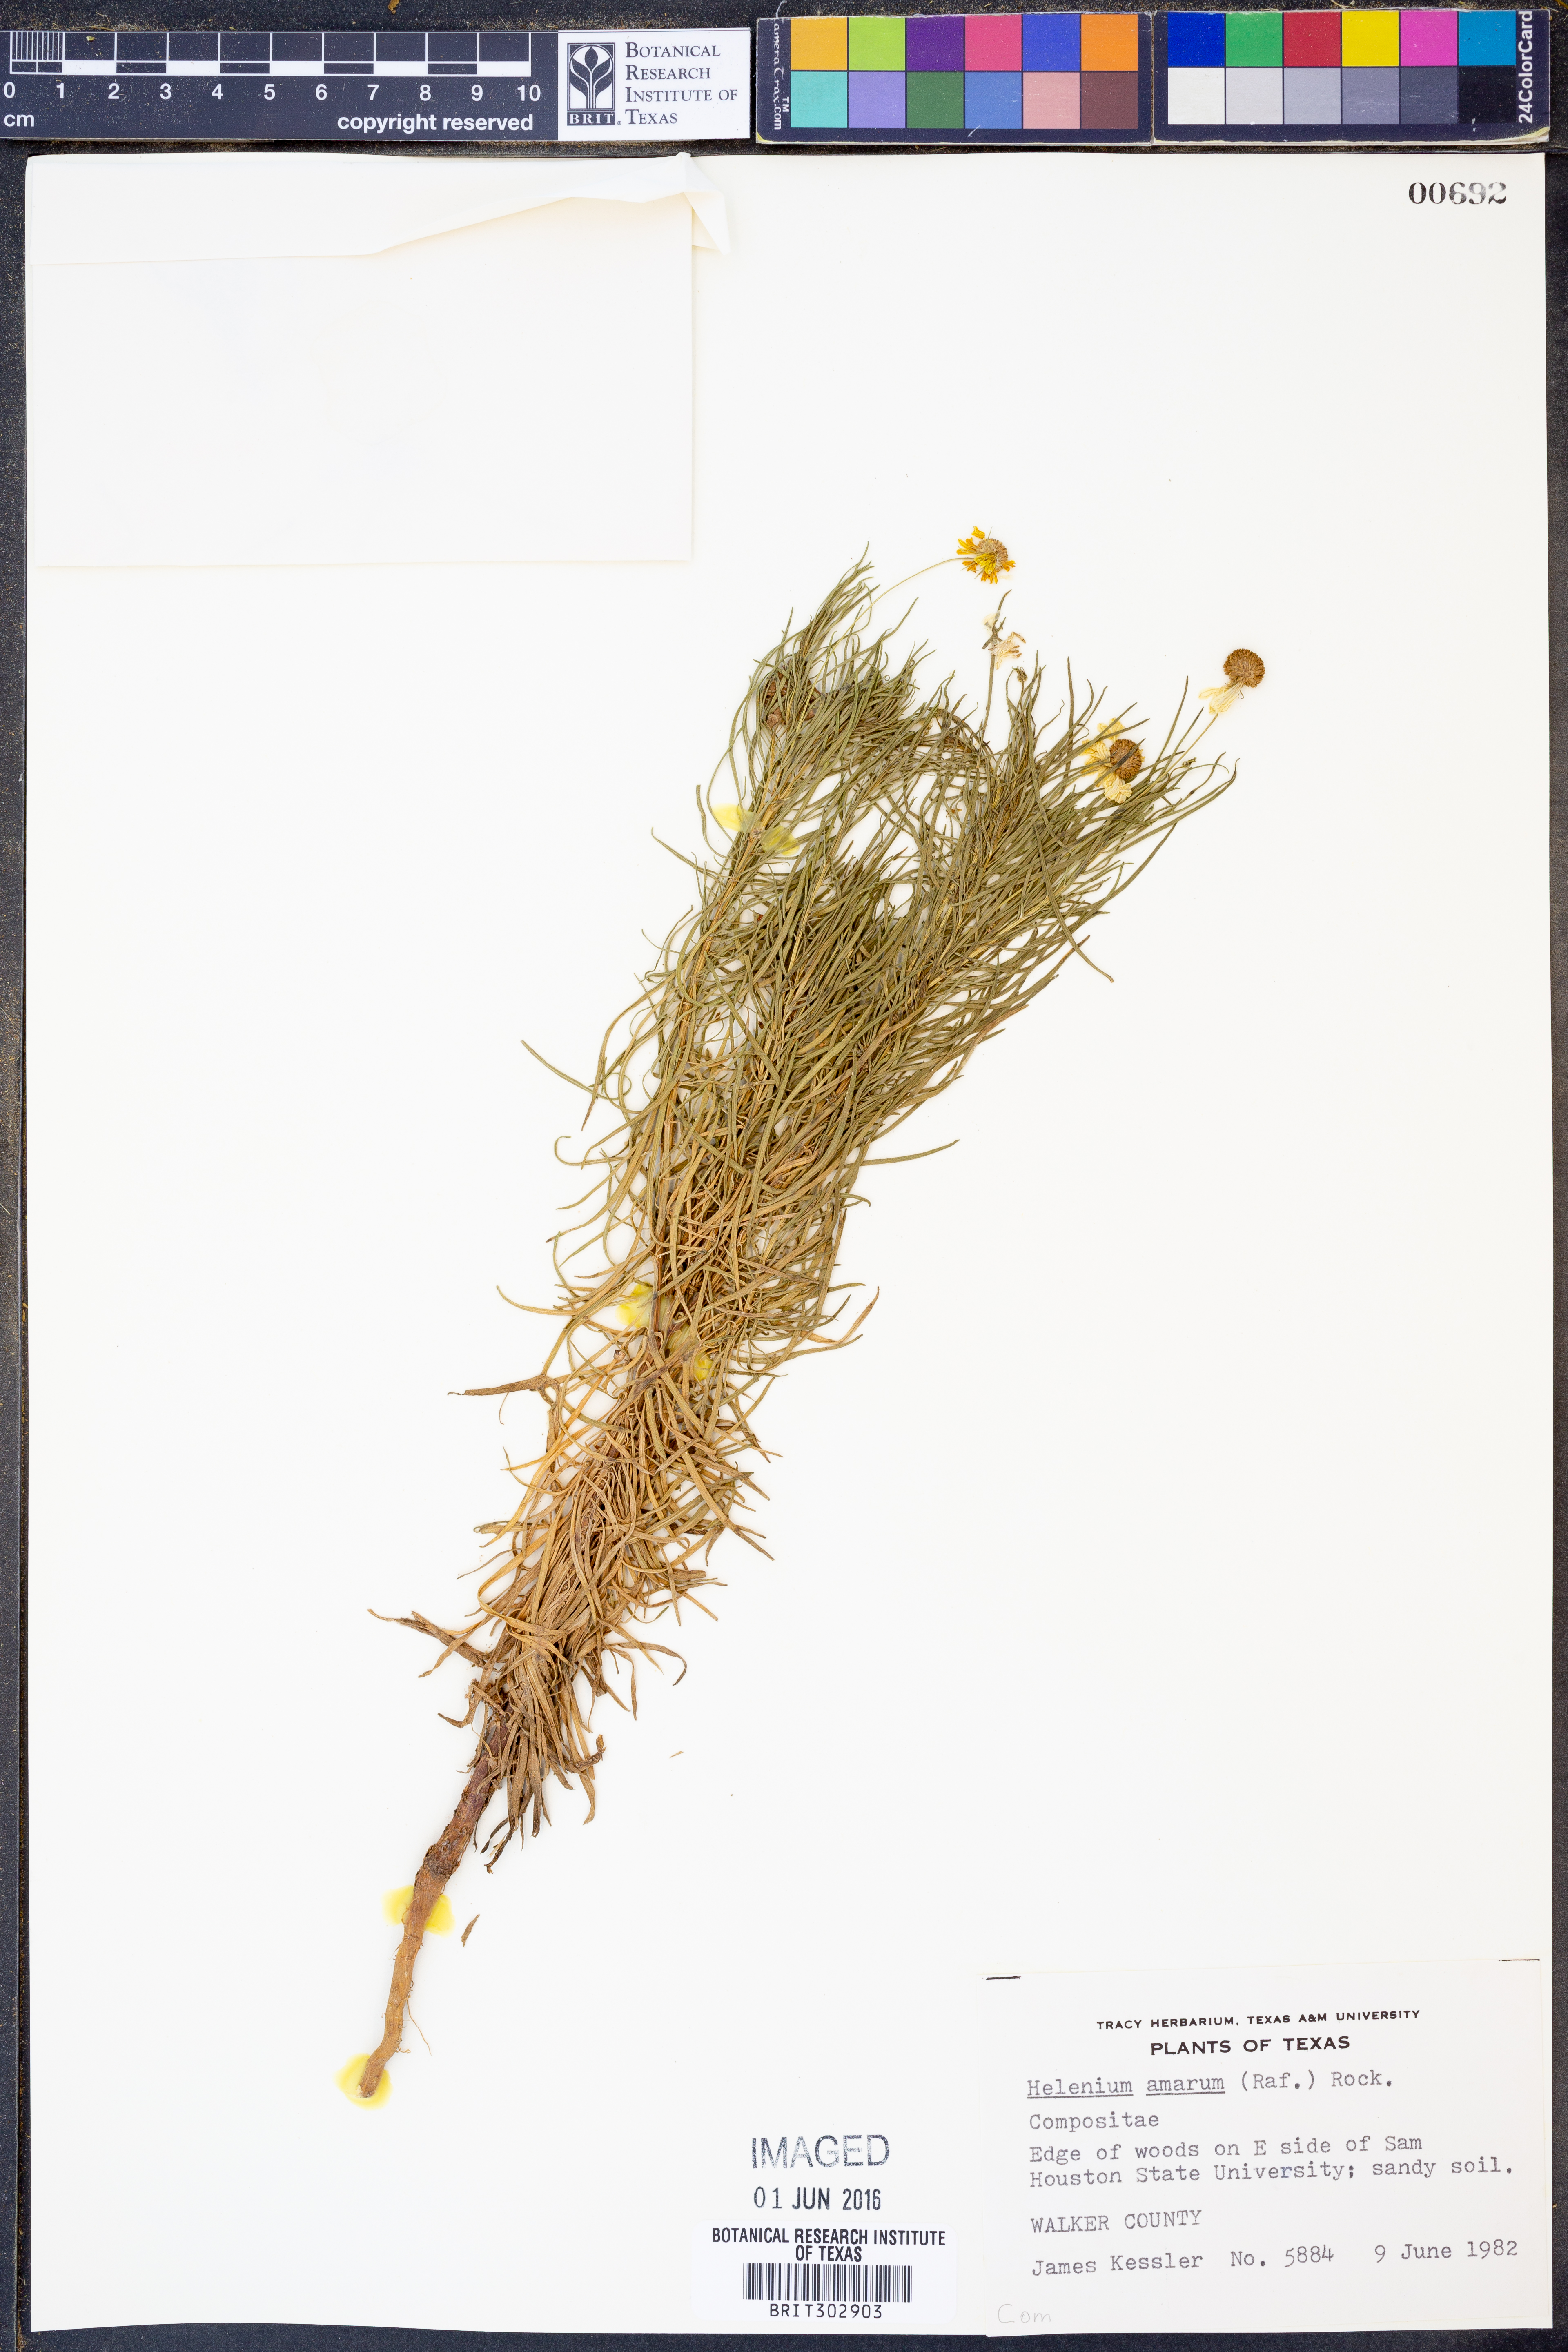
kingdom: Plantae
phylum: Tracheophyta
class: Magnoliopsida
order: Asterales
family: Asteraceae
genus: Helenium
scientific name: Helenium amarum
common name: Bitter sneezeweed
